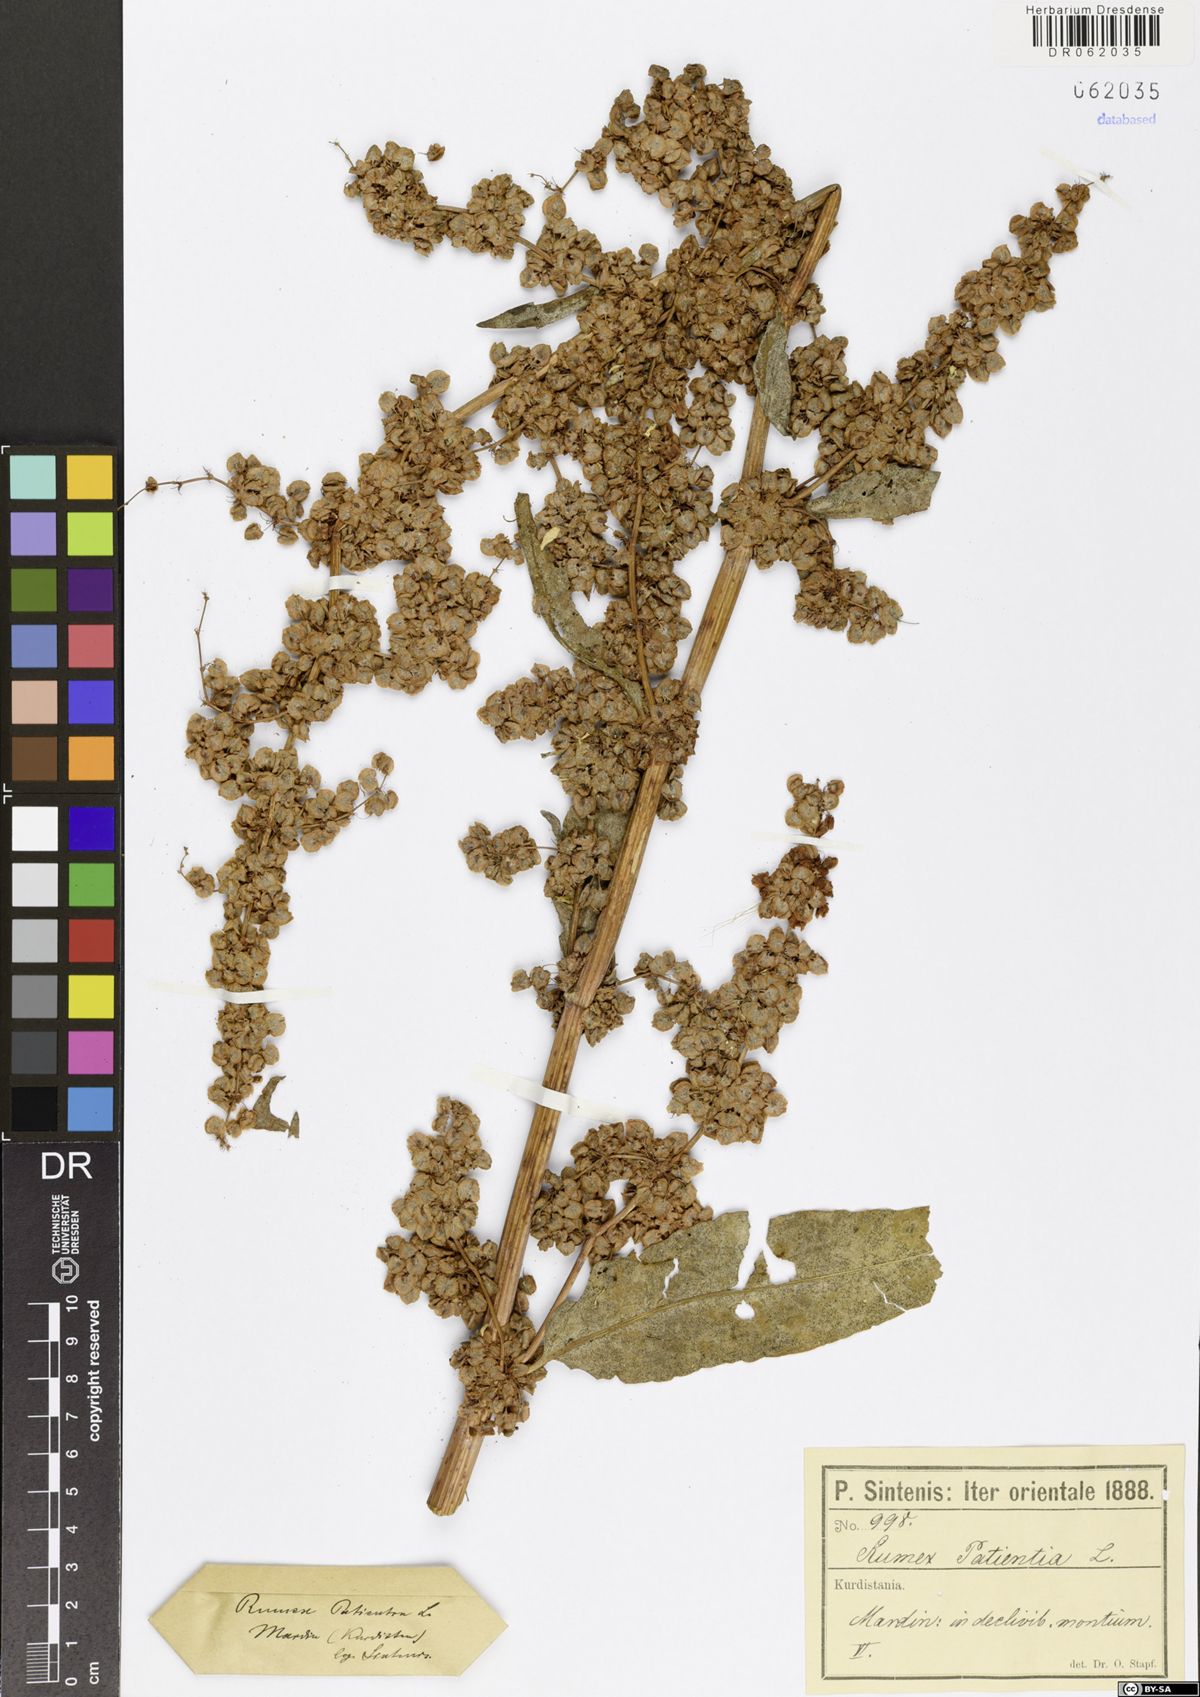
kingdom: Plantae
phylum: Tracheophyta
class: Magnoliopsida
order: Caryophyllales
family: Polygonaceae
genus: Rumex
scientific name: Rumex patientia
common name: Patience dock
